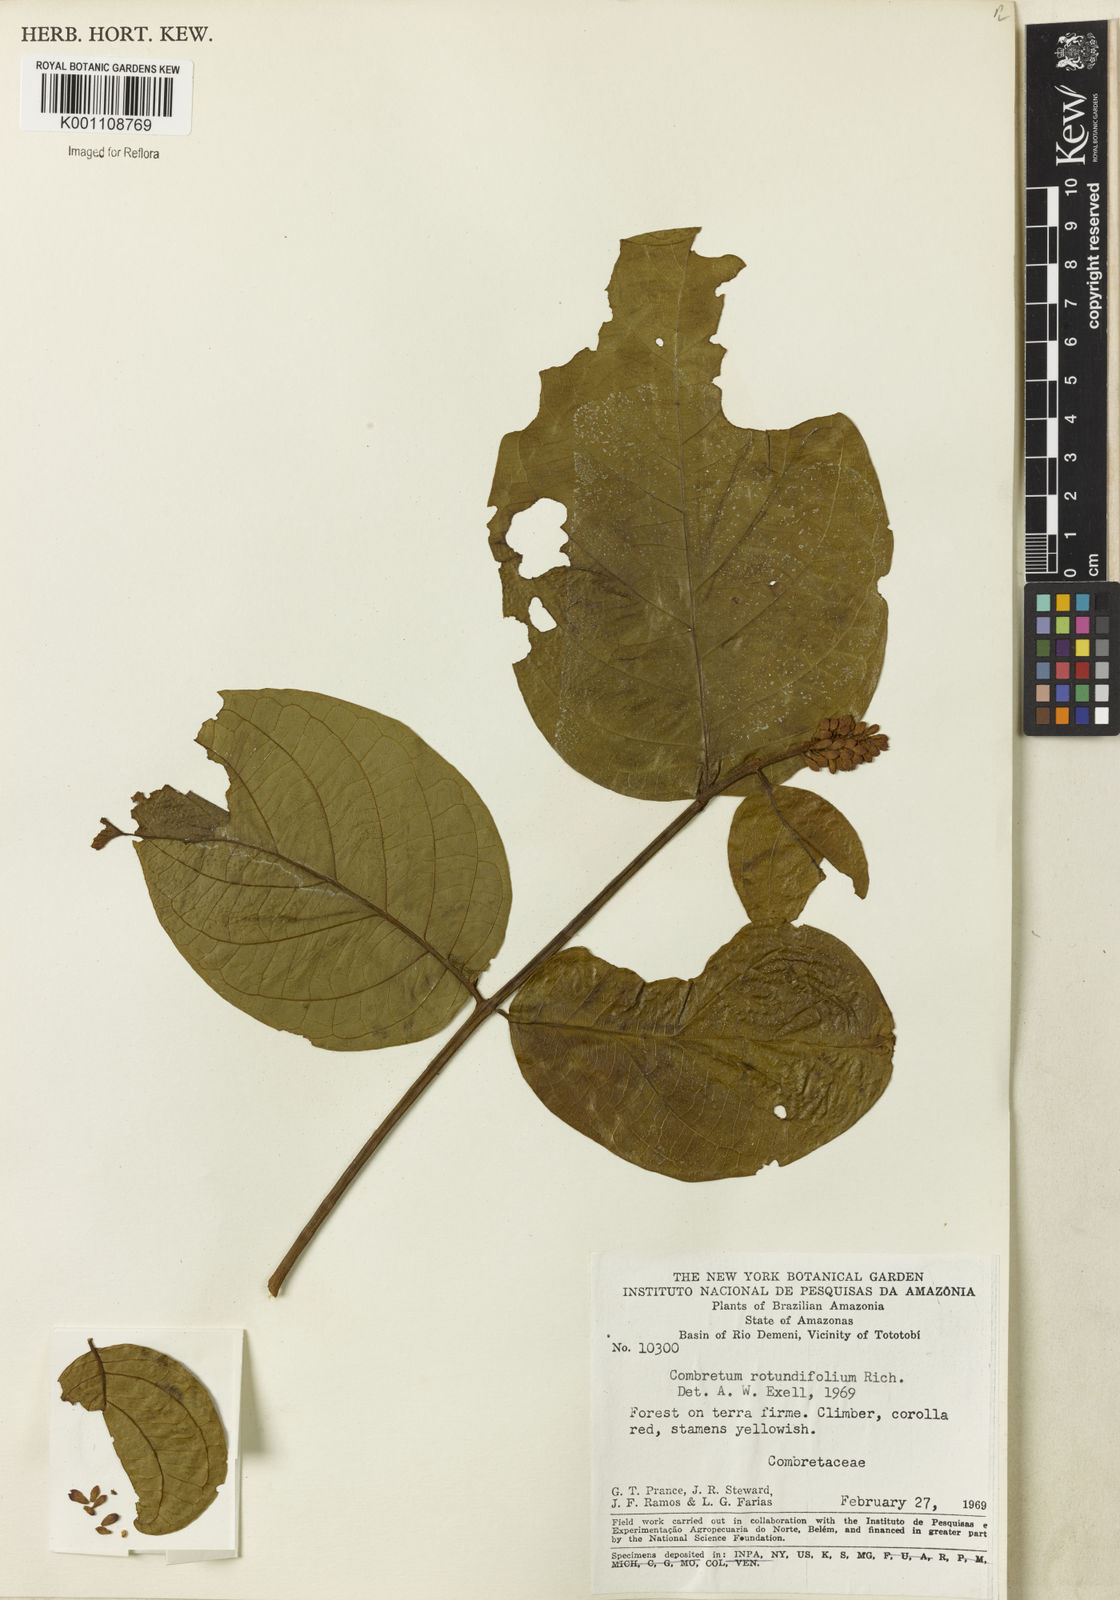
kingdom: Plantae
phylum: Tracheophyta
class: Magnoliopsida
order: Myrtales
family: Combretaceae
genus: Combretum
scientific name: Combretum rotundifolium
